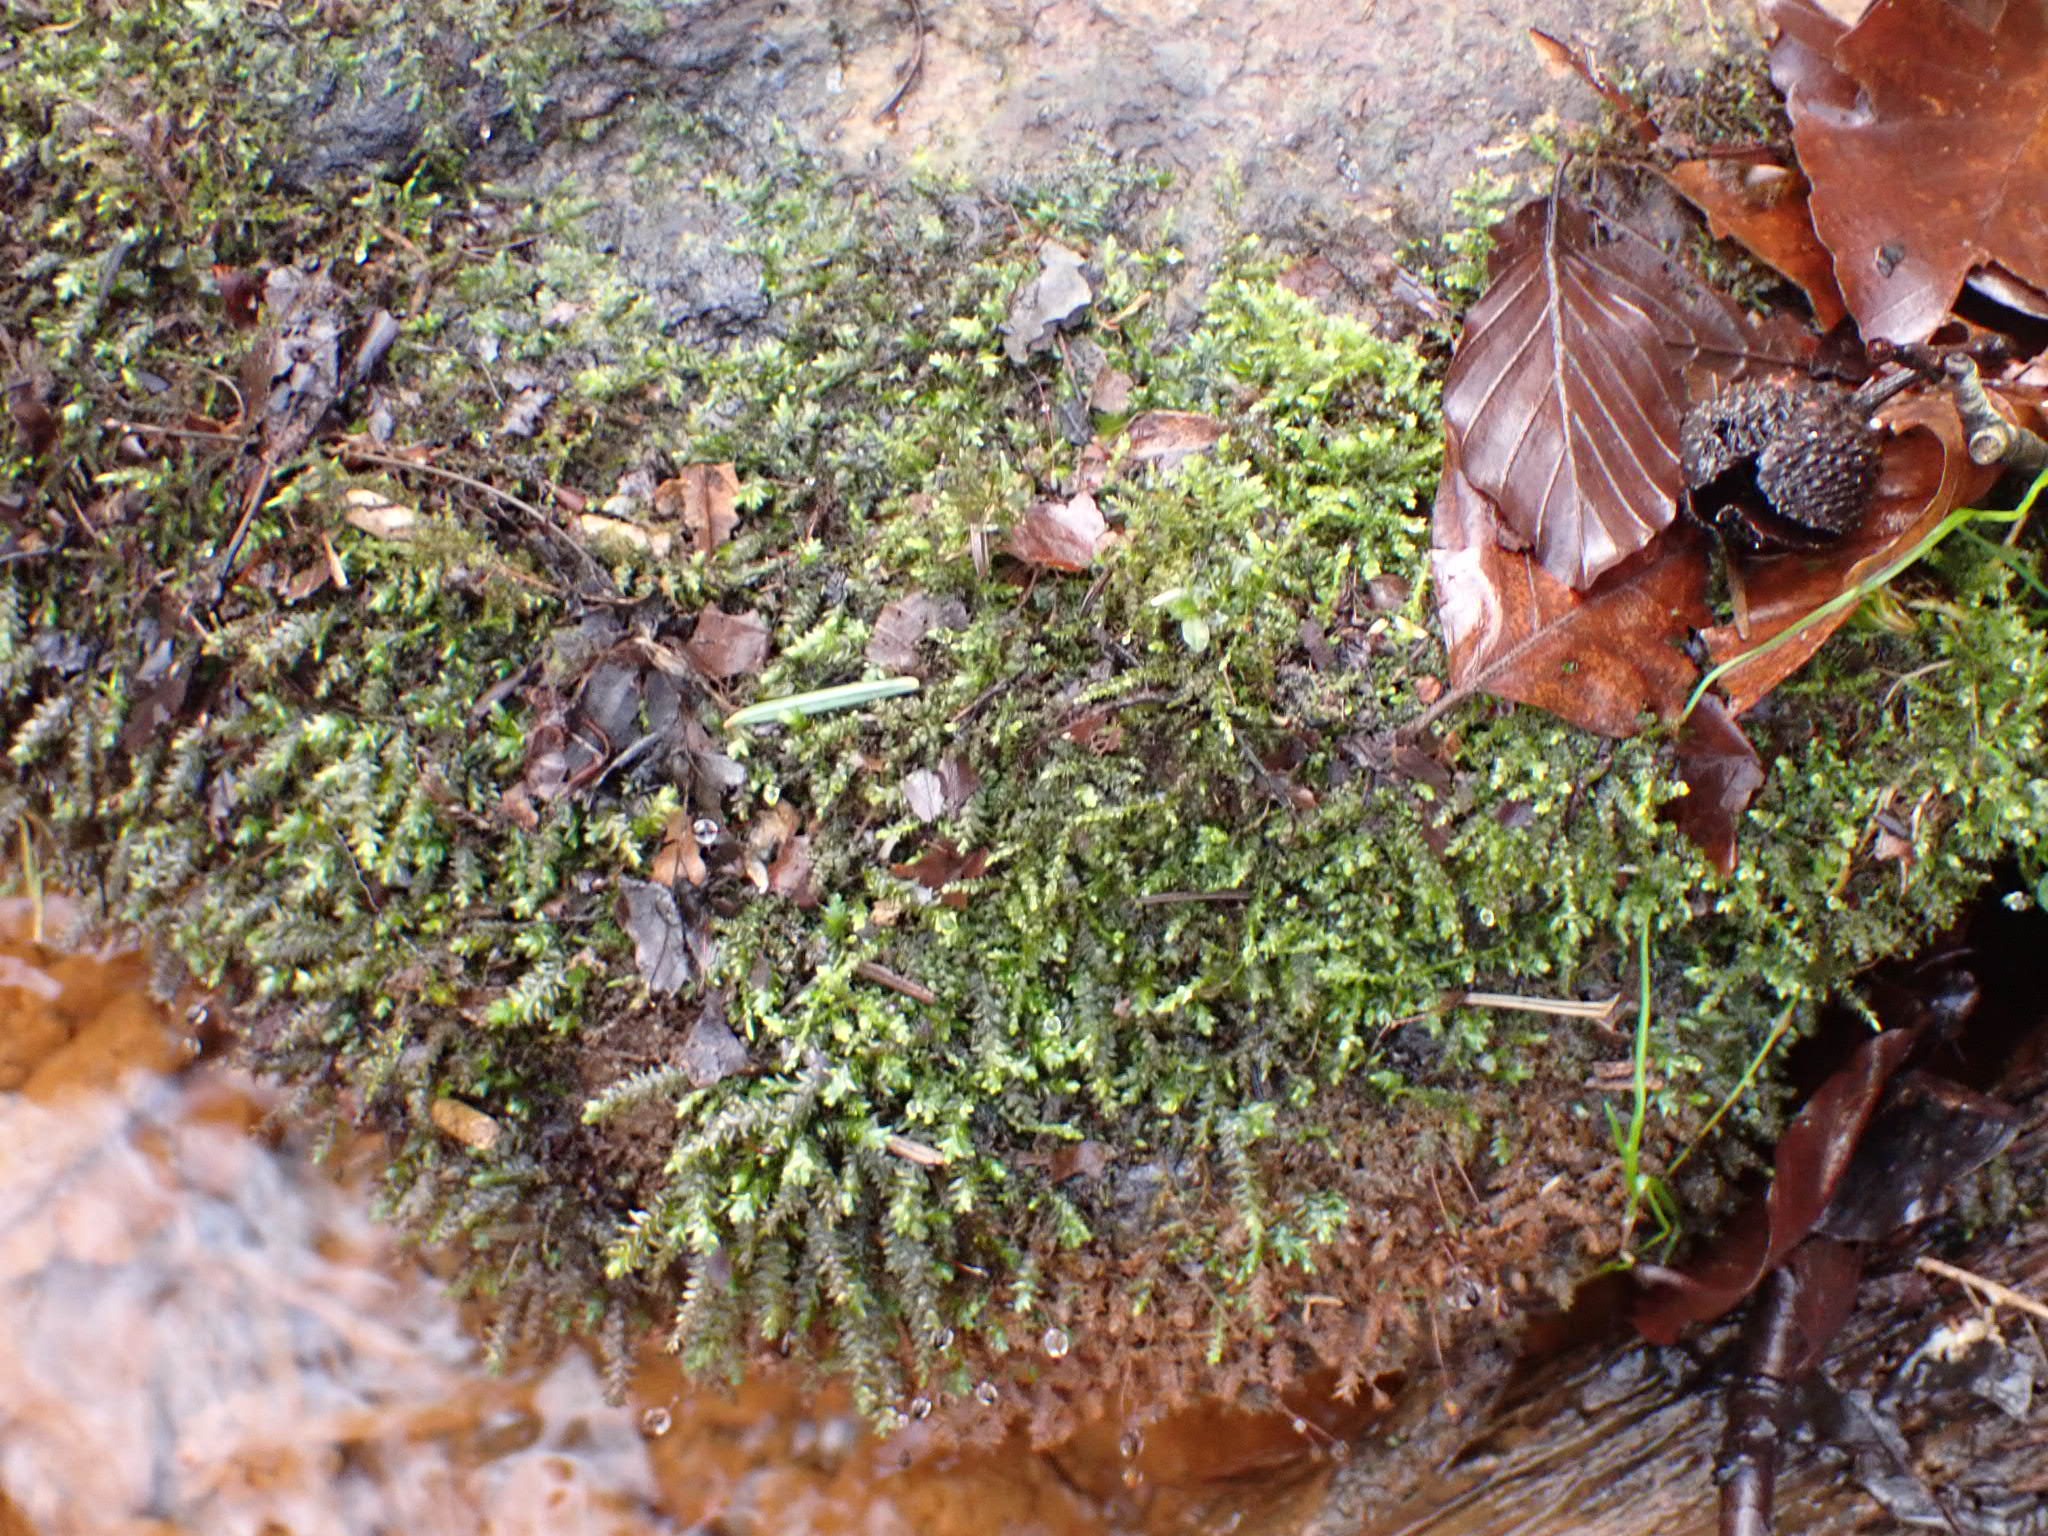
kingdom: Plantae
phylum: Bryophyta
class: Bryopsida
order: Hypnales
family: Brachytheciaceae
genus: Rhynchostegium
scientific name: Rhynchostegium riparioides
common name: Robust strømmos
